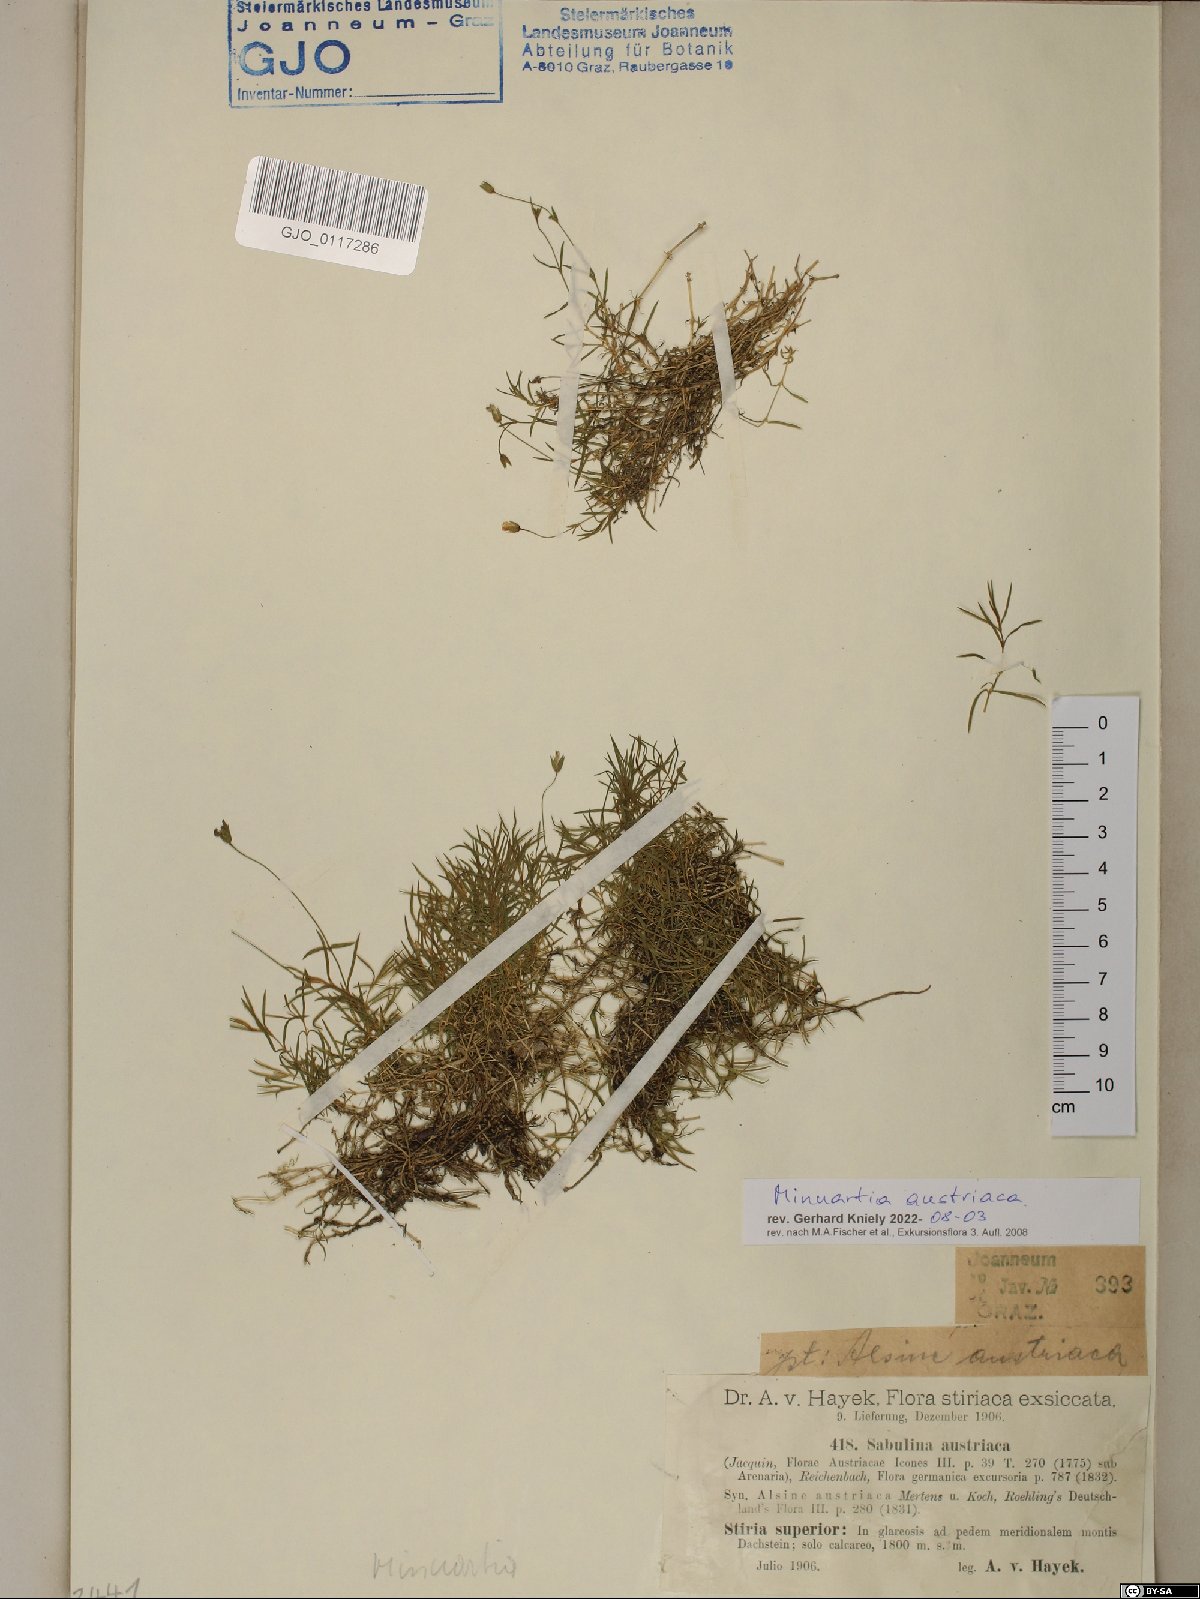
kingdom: Plantae
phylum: Tracheophyta
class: Magnoliopsida
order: Caryophyllales
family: Caryophyllaceae
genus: Sabulina
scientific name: Sabulina austriaca
